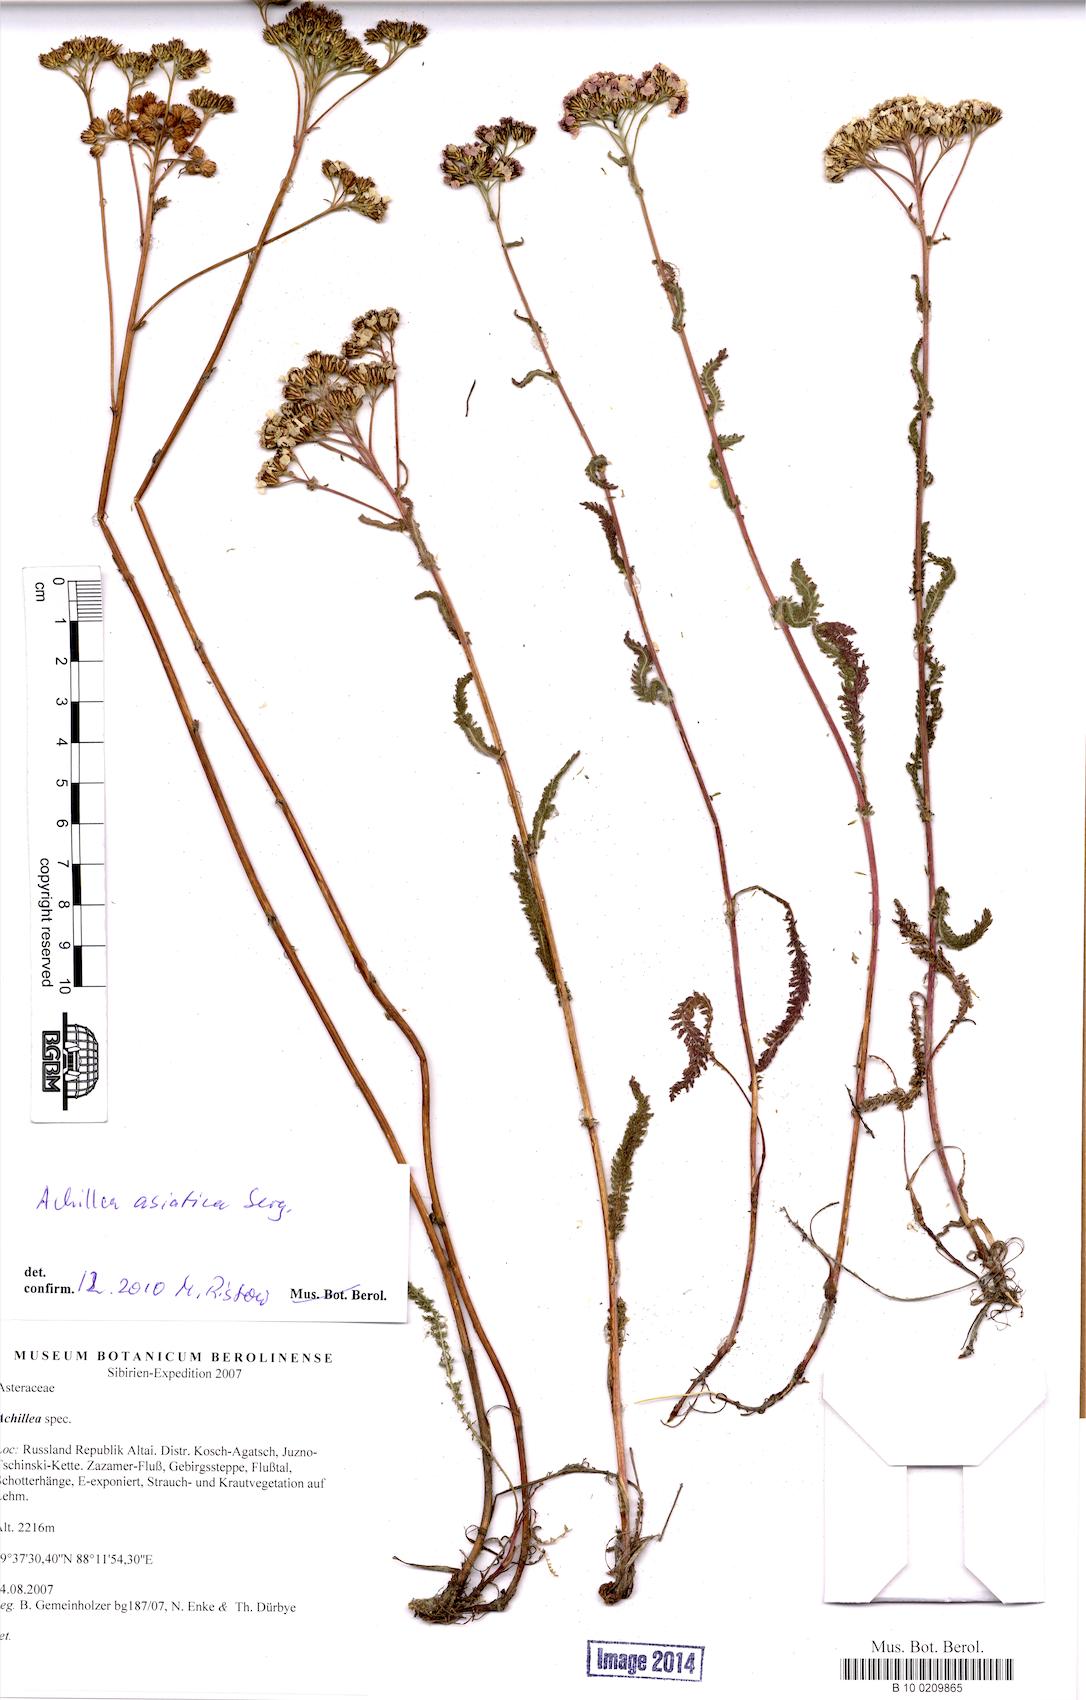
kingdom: Plantae
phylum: Tracheophyta
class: Magnoliopsida
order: Asterales
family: Asteraceae
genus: Achillea
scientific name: Achillea asiatica
